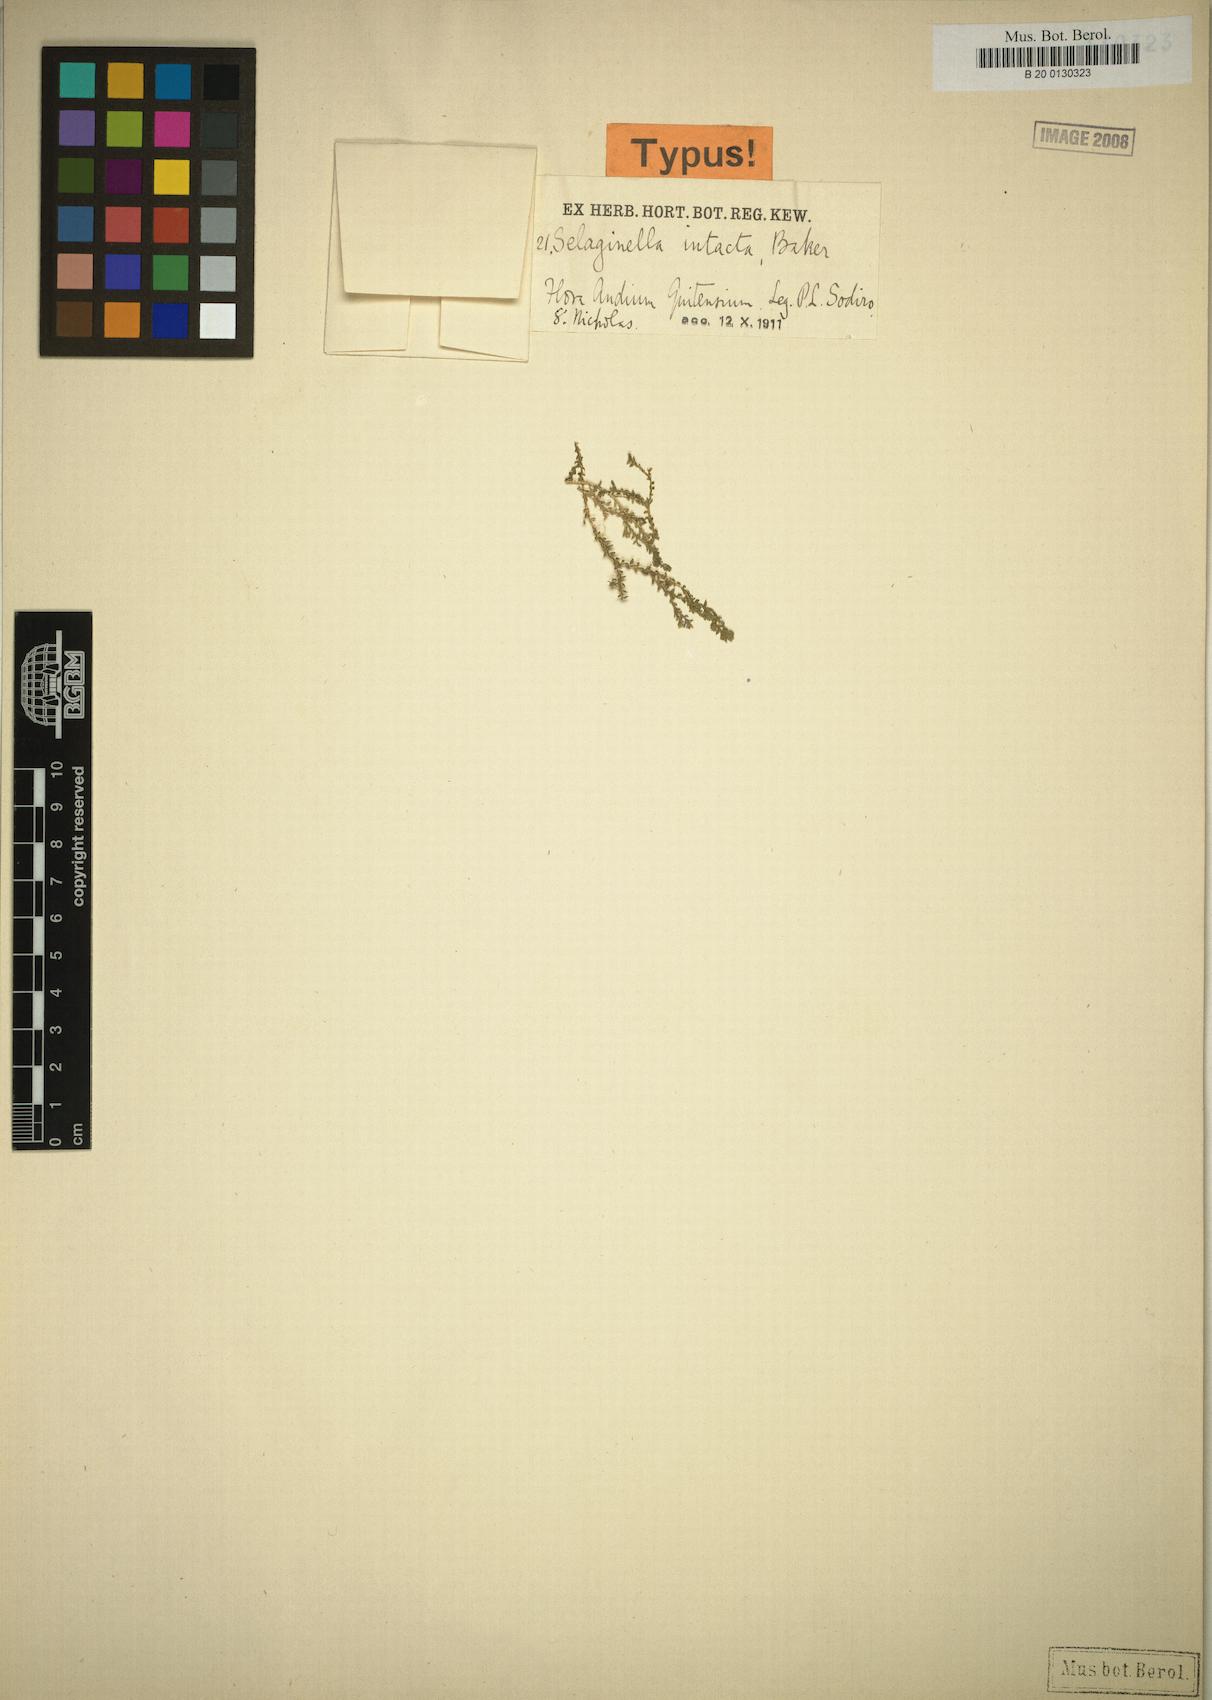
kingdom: Plantae
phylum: Tracheophyta
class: Lycopodiopsida
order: Selaginellales
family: Selaginellaceae
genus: Selaginella
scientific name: Selaginella lingulata
